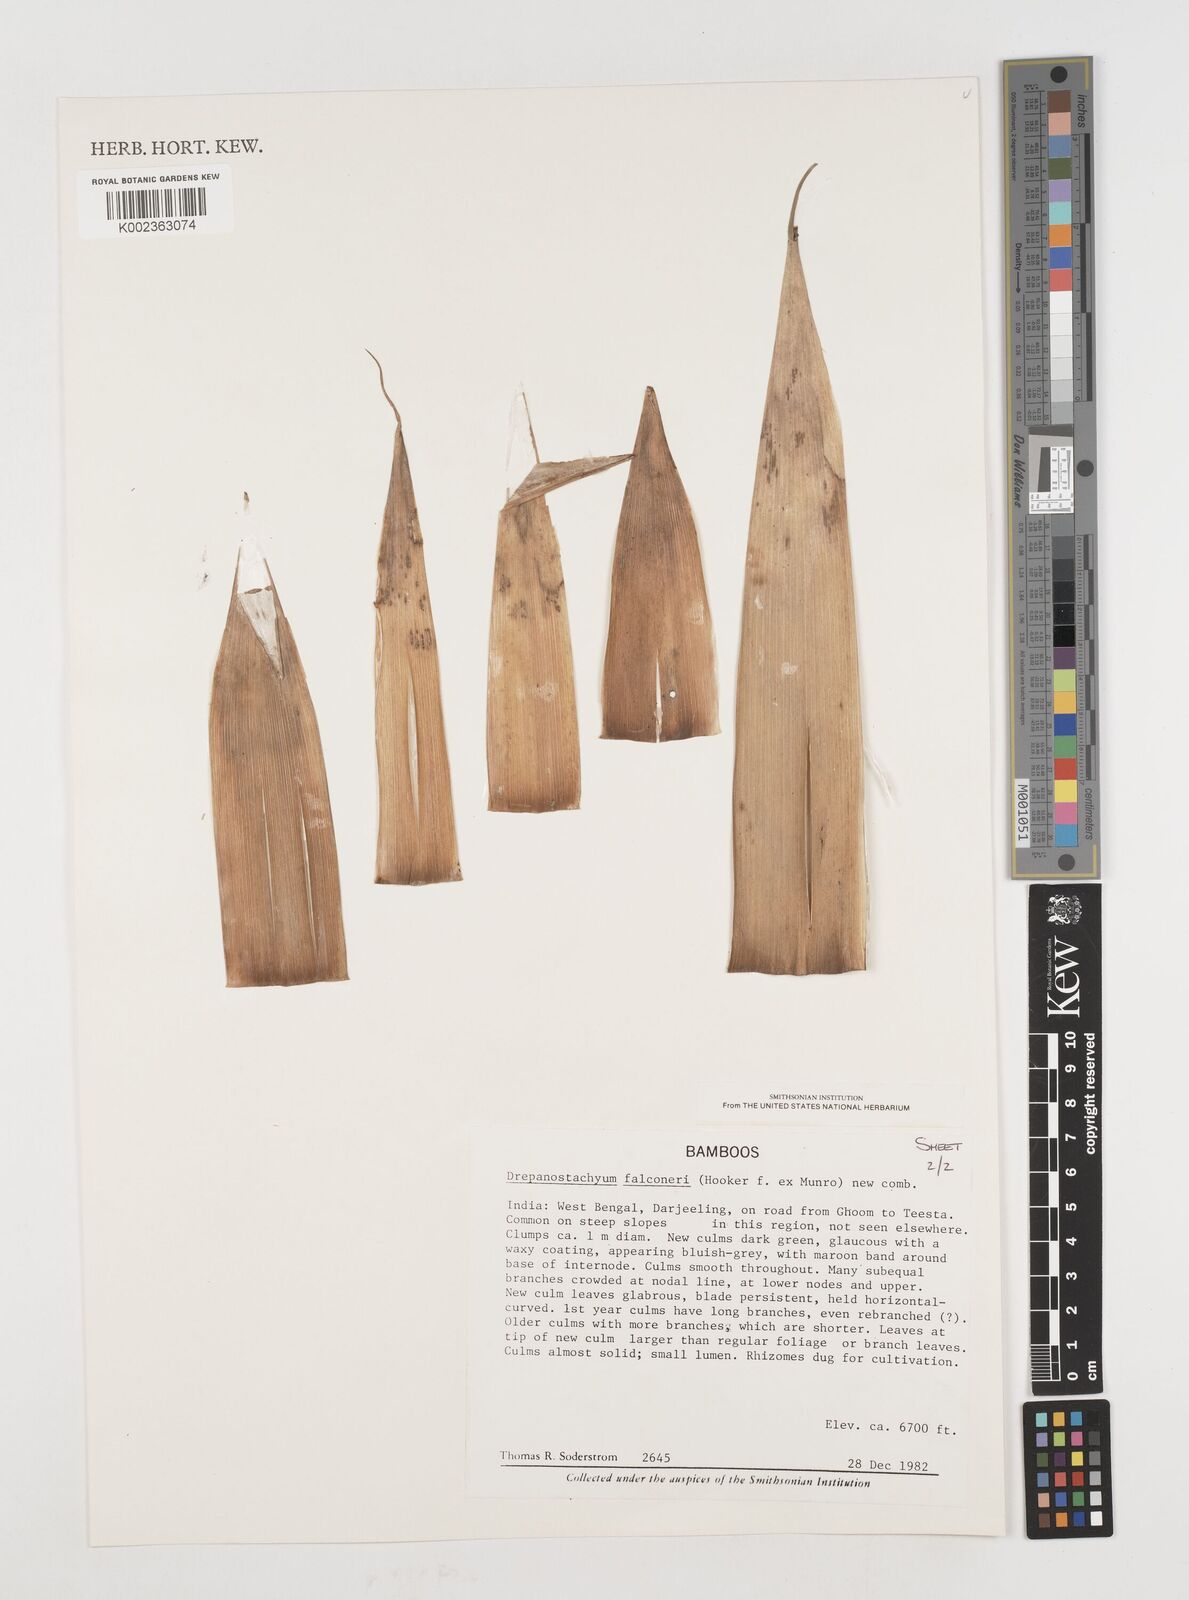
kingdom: Plantae
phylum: Tracheophyta
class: Liliopsida
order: Poales
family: Poaceae
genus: Drepanostachyum
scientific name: Drepanostachyum
